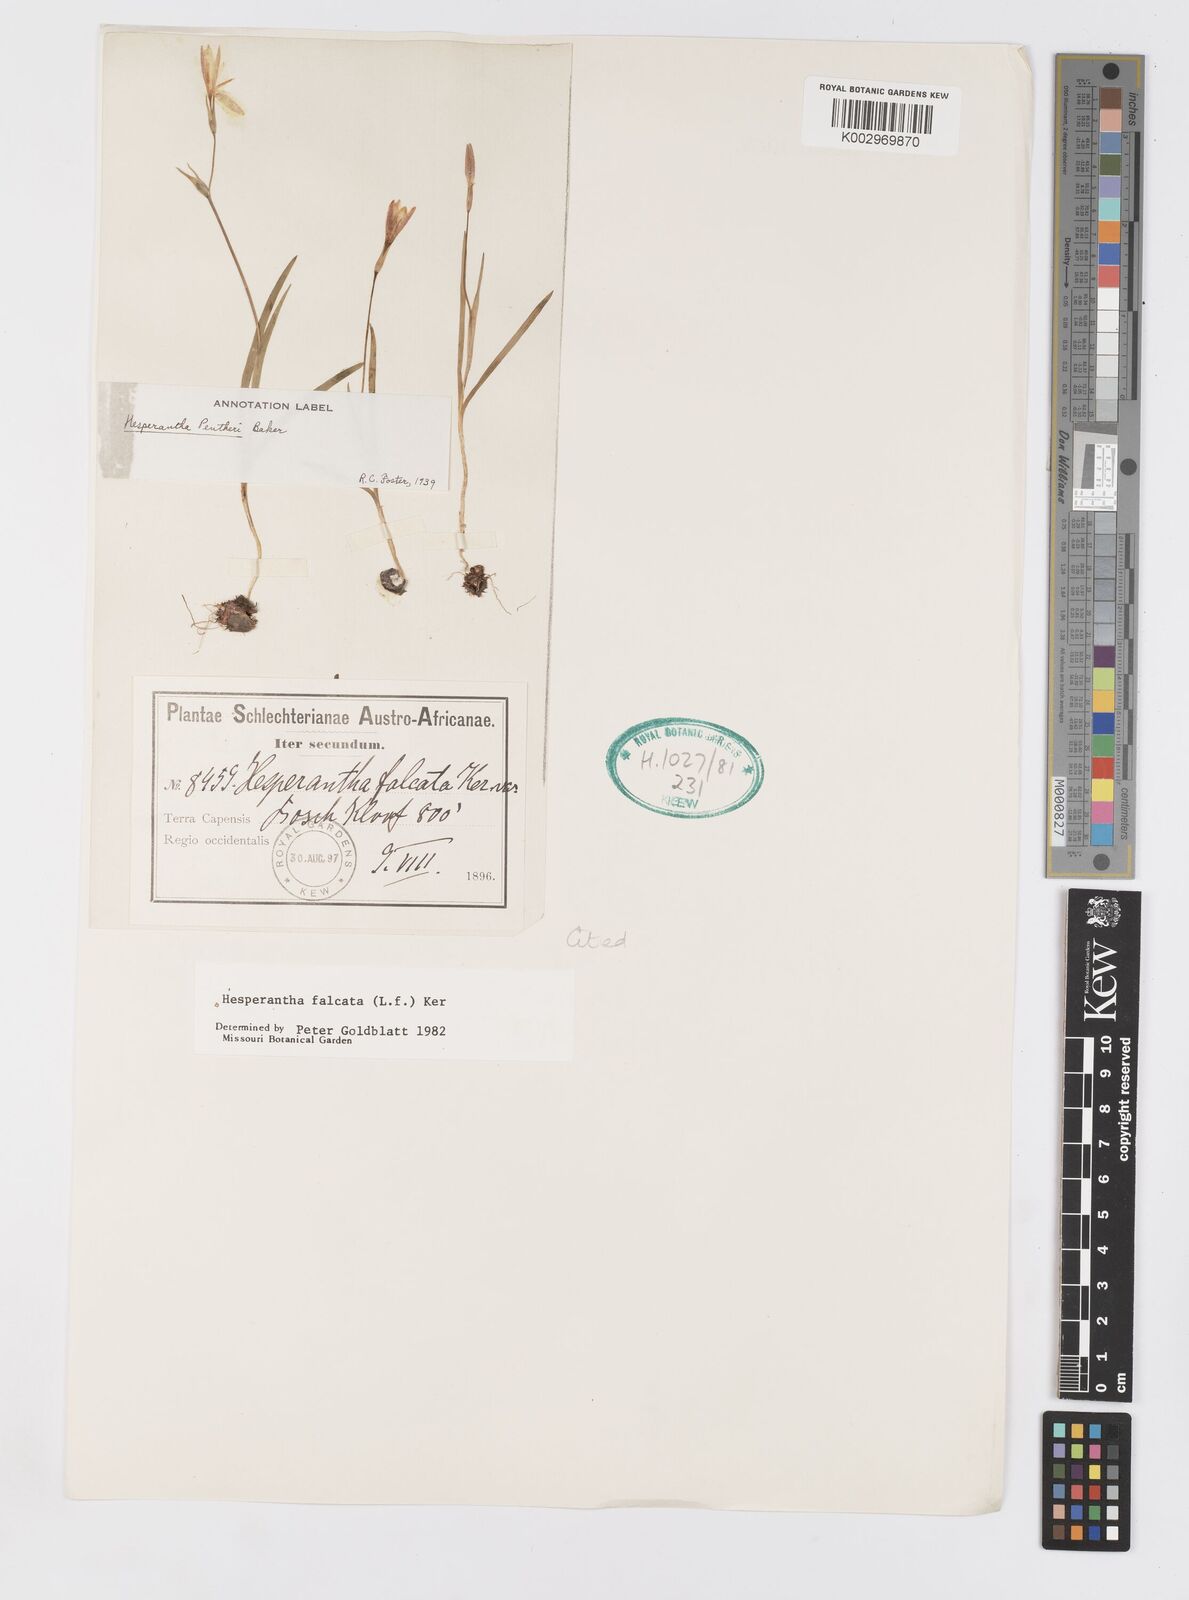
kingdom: Plantae
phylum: Tracheophyta
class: Liliopsida
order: Asparagales
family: Iridaceae
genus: Hesperantha
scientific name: Hesperantha falcata
